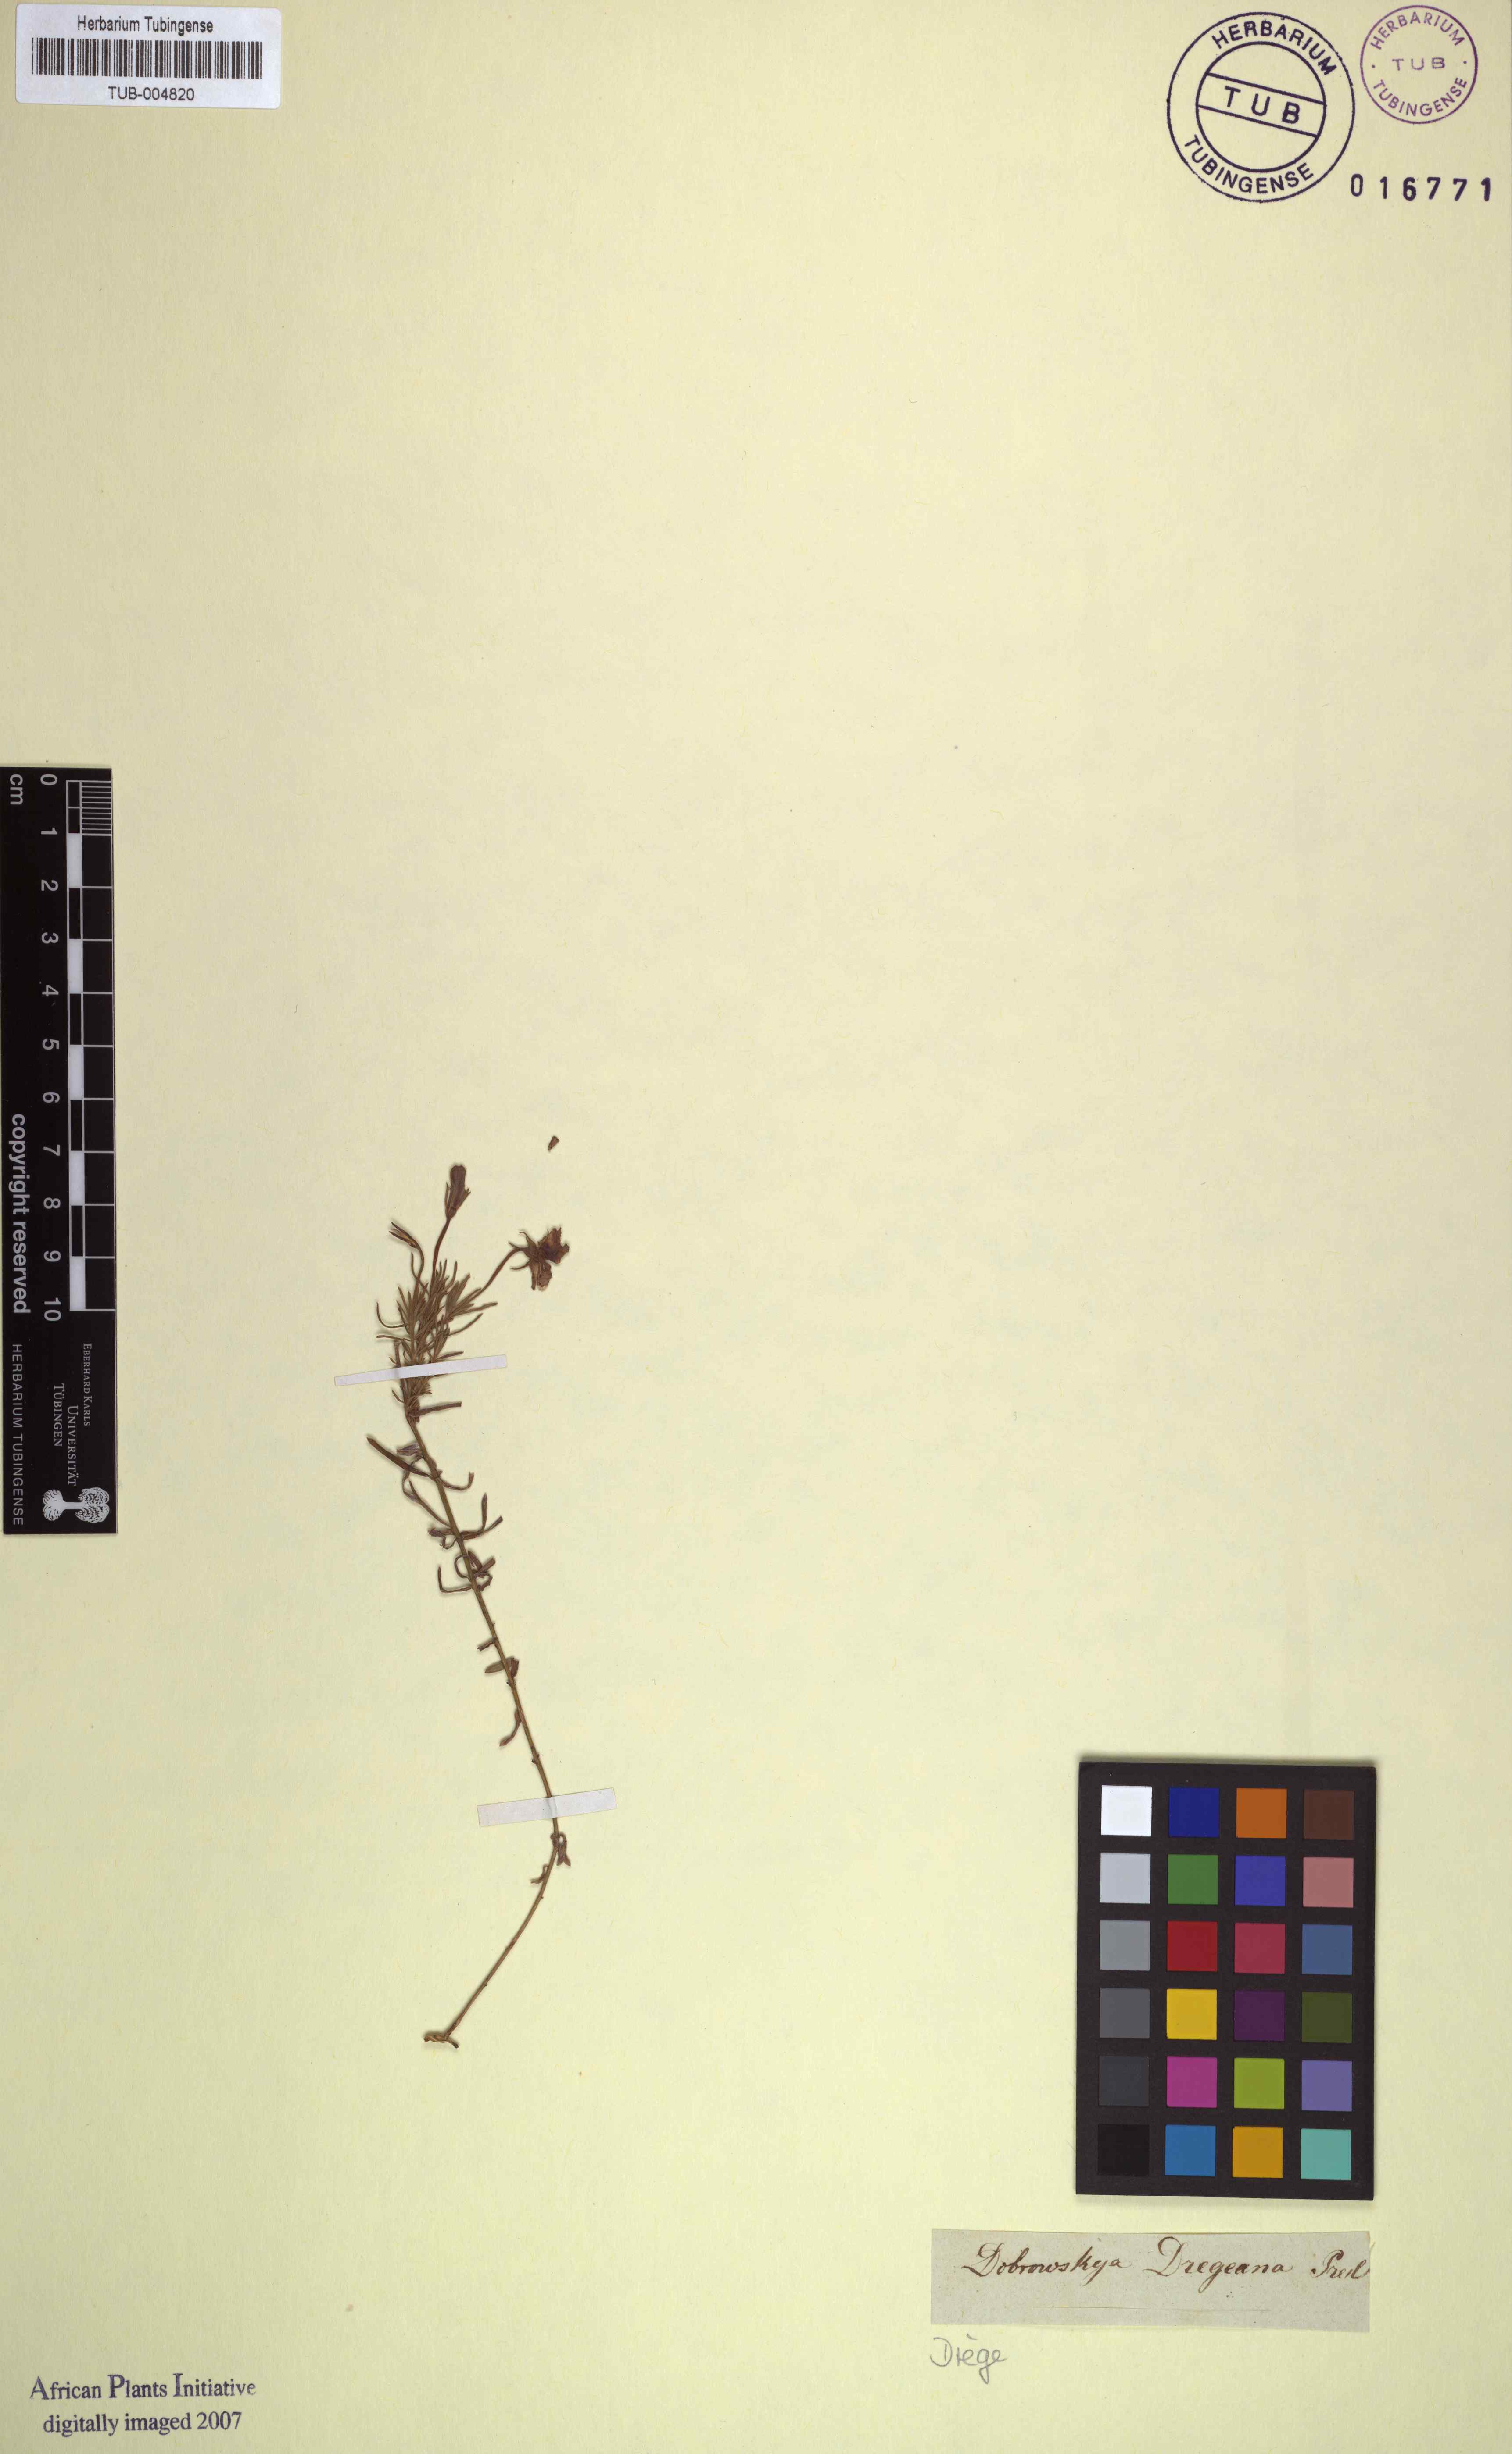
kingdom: Plantae
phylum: Tracheophyta
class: Magnoliopsida
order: Asterales
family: Campanulaceae
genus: Monopsis
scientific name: Monopsis scabra
